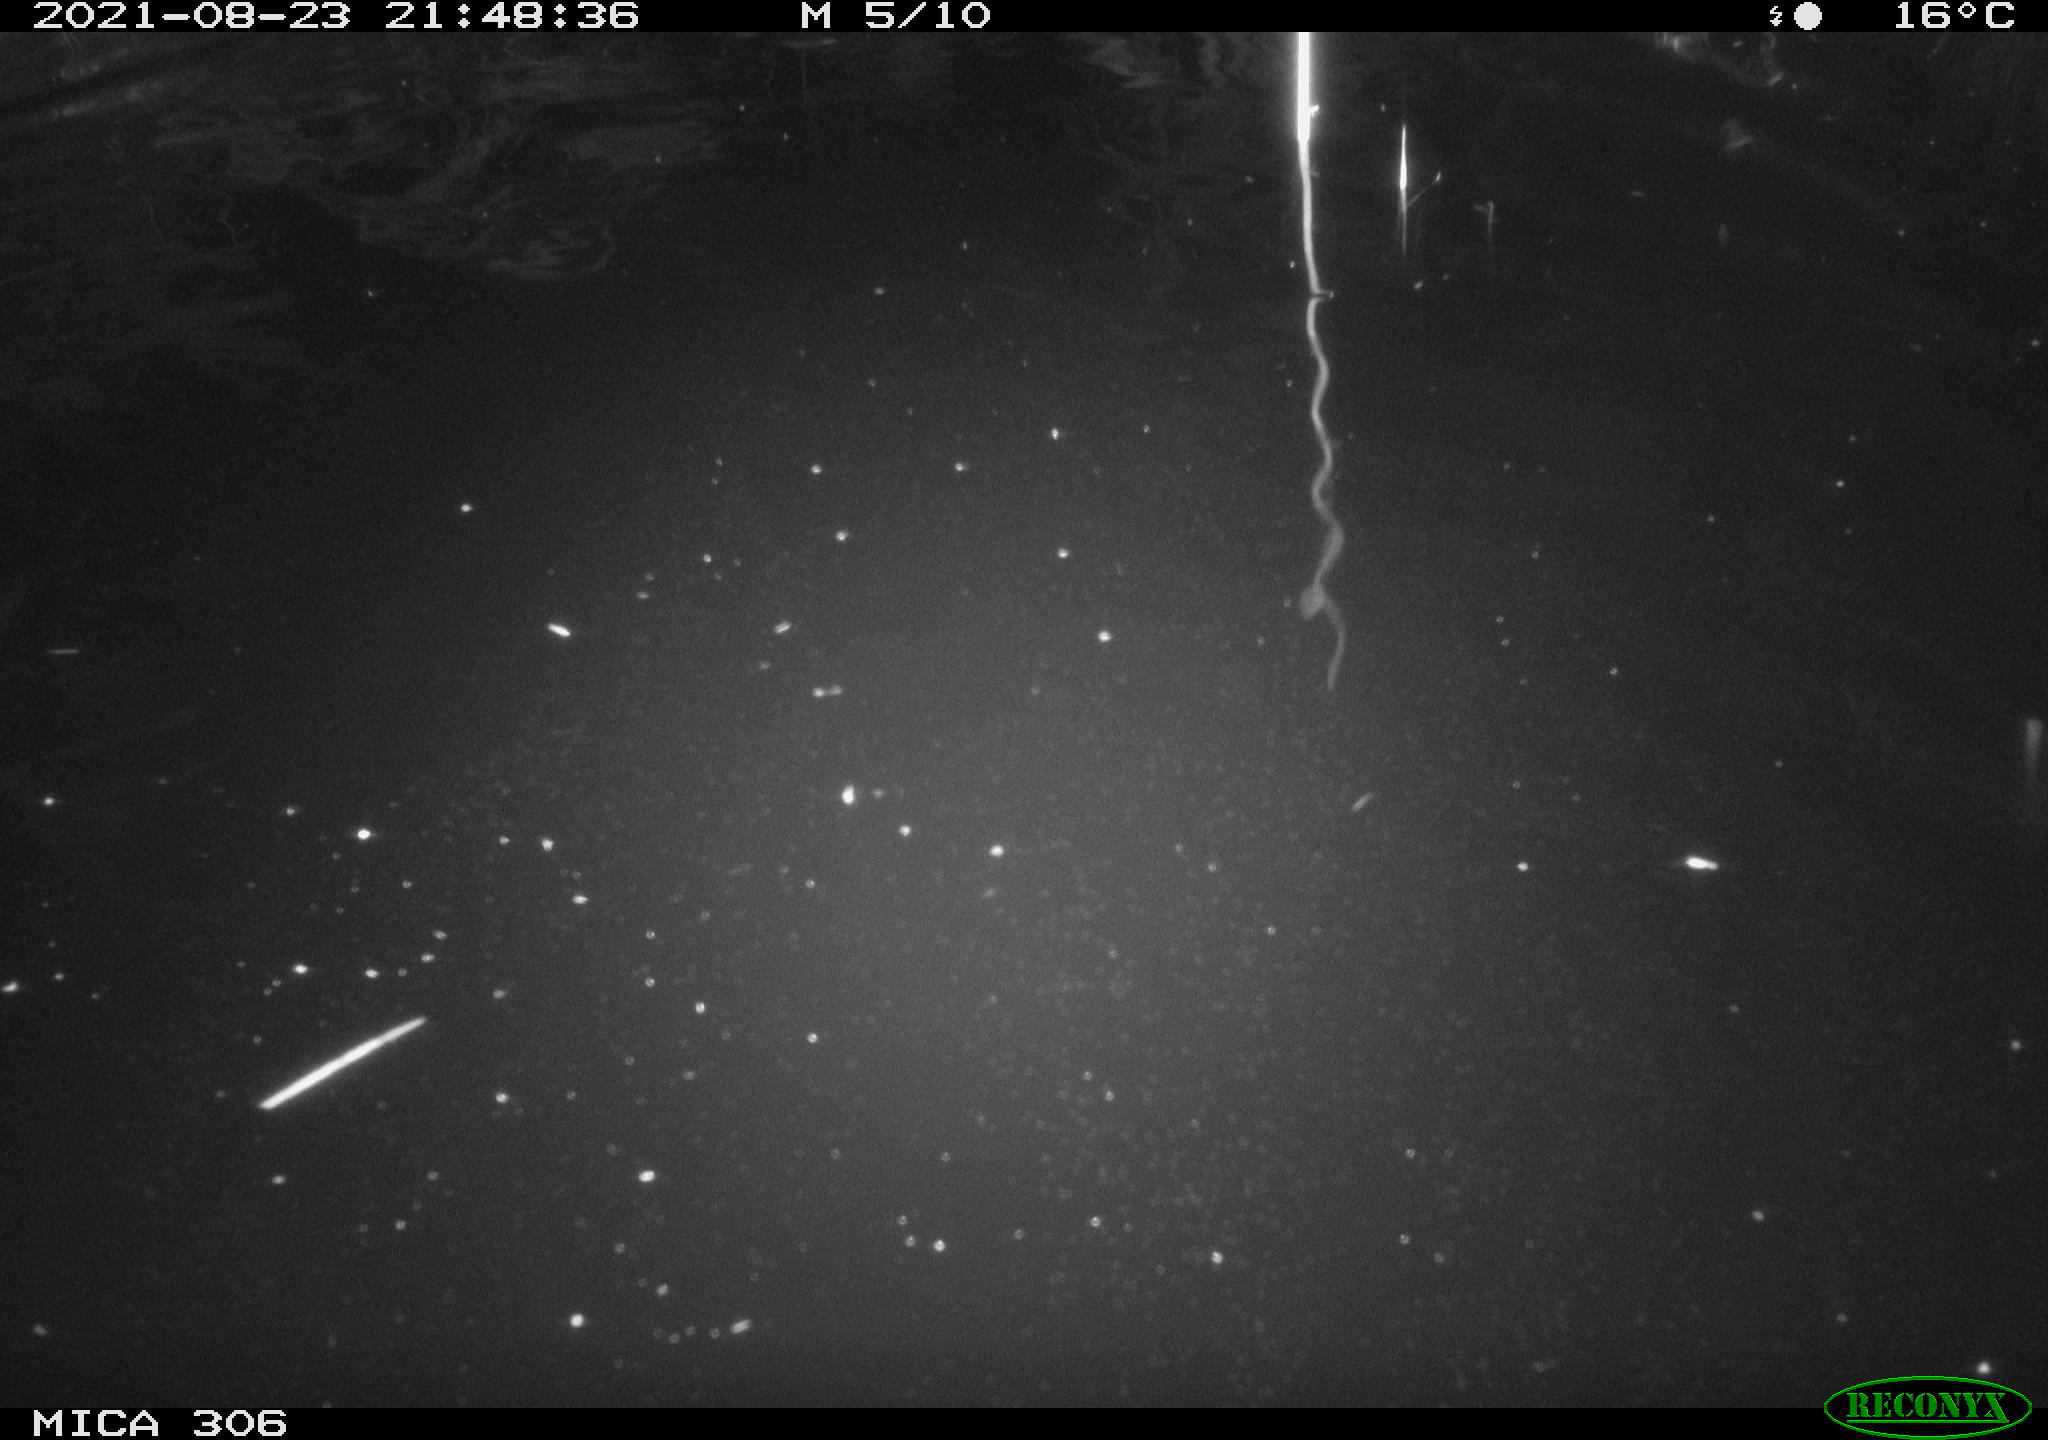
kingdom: Animalia
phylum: Chordata
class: Aves
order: Anseriformes
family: Anatidae
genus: Anas
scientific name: Anas platyrhynchos
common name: Mallard
